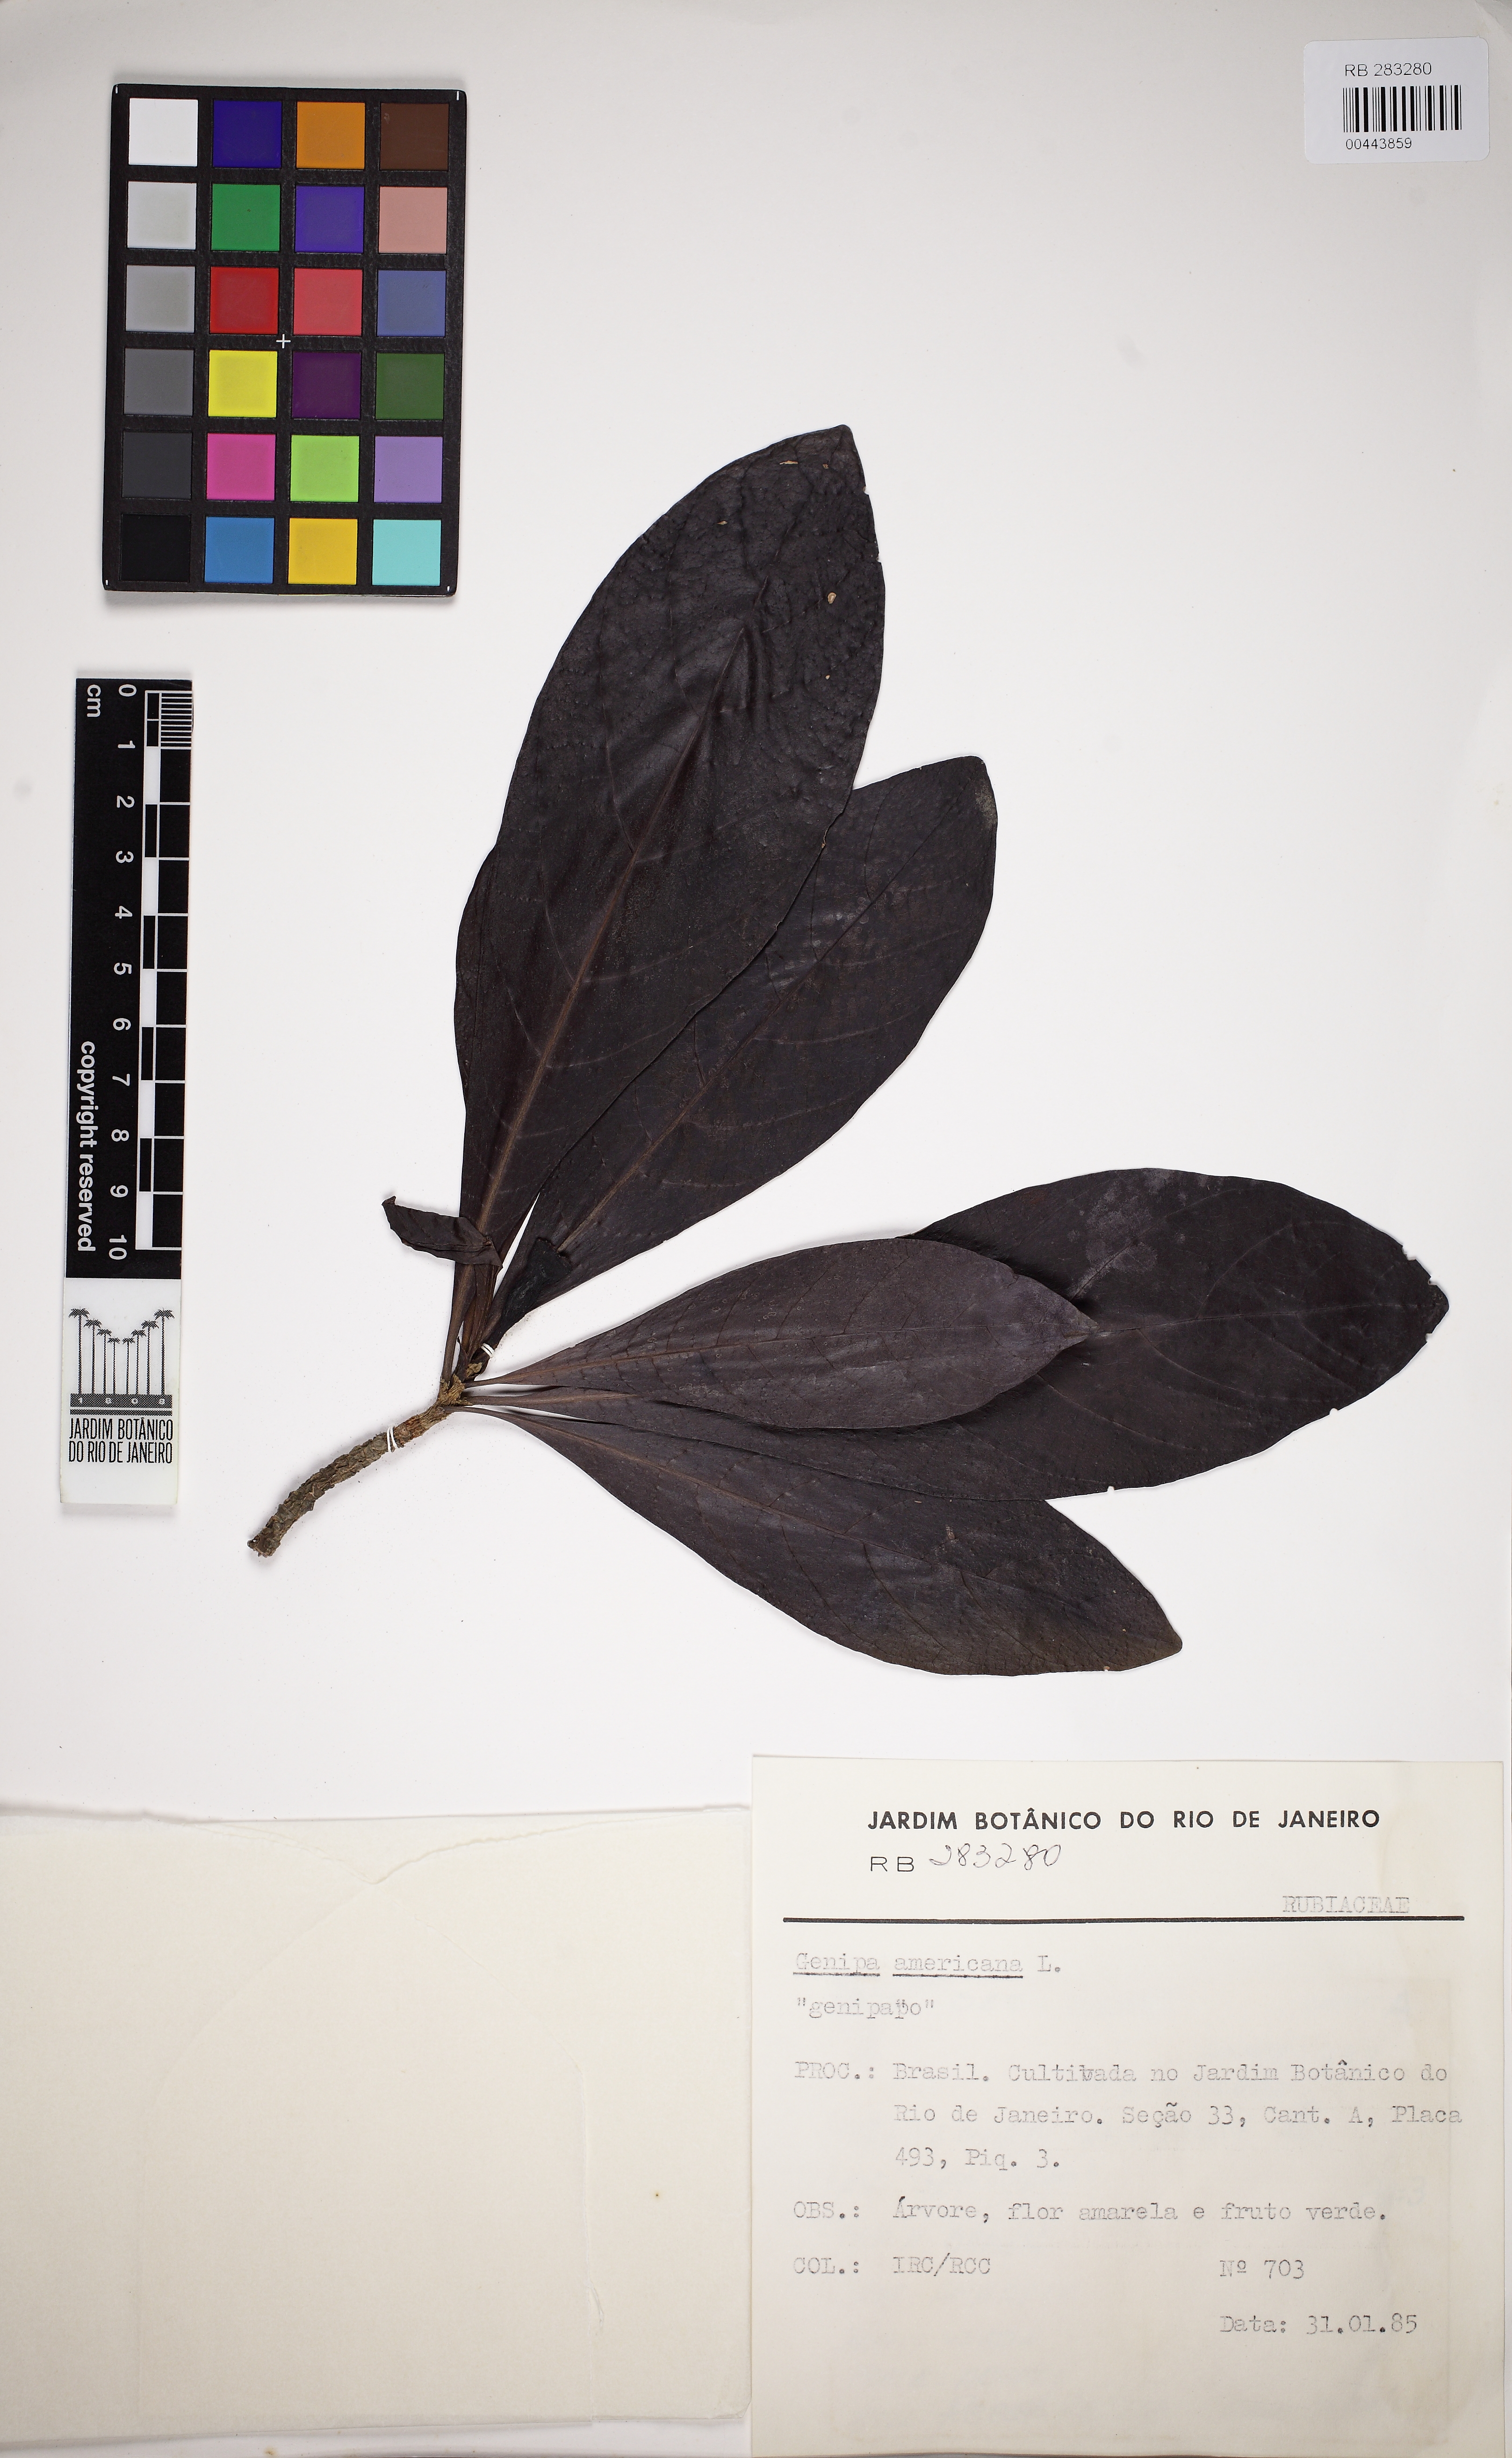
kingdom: Plantae
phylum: Tracheophyta
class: Magnoliopsida
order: Gentianales
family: Rubiaceae
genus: Genipa
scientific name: Genipa americana
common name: Genipap
